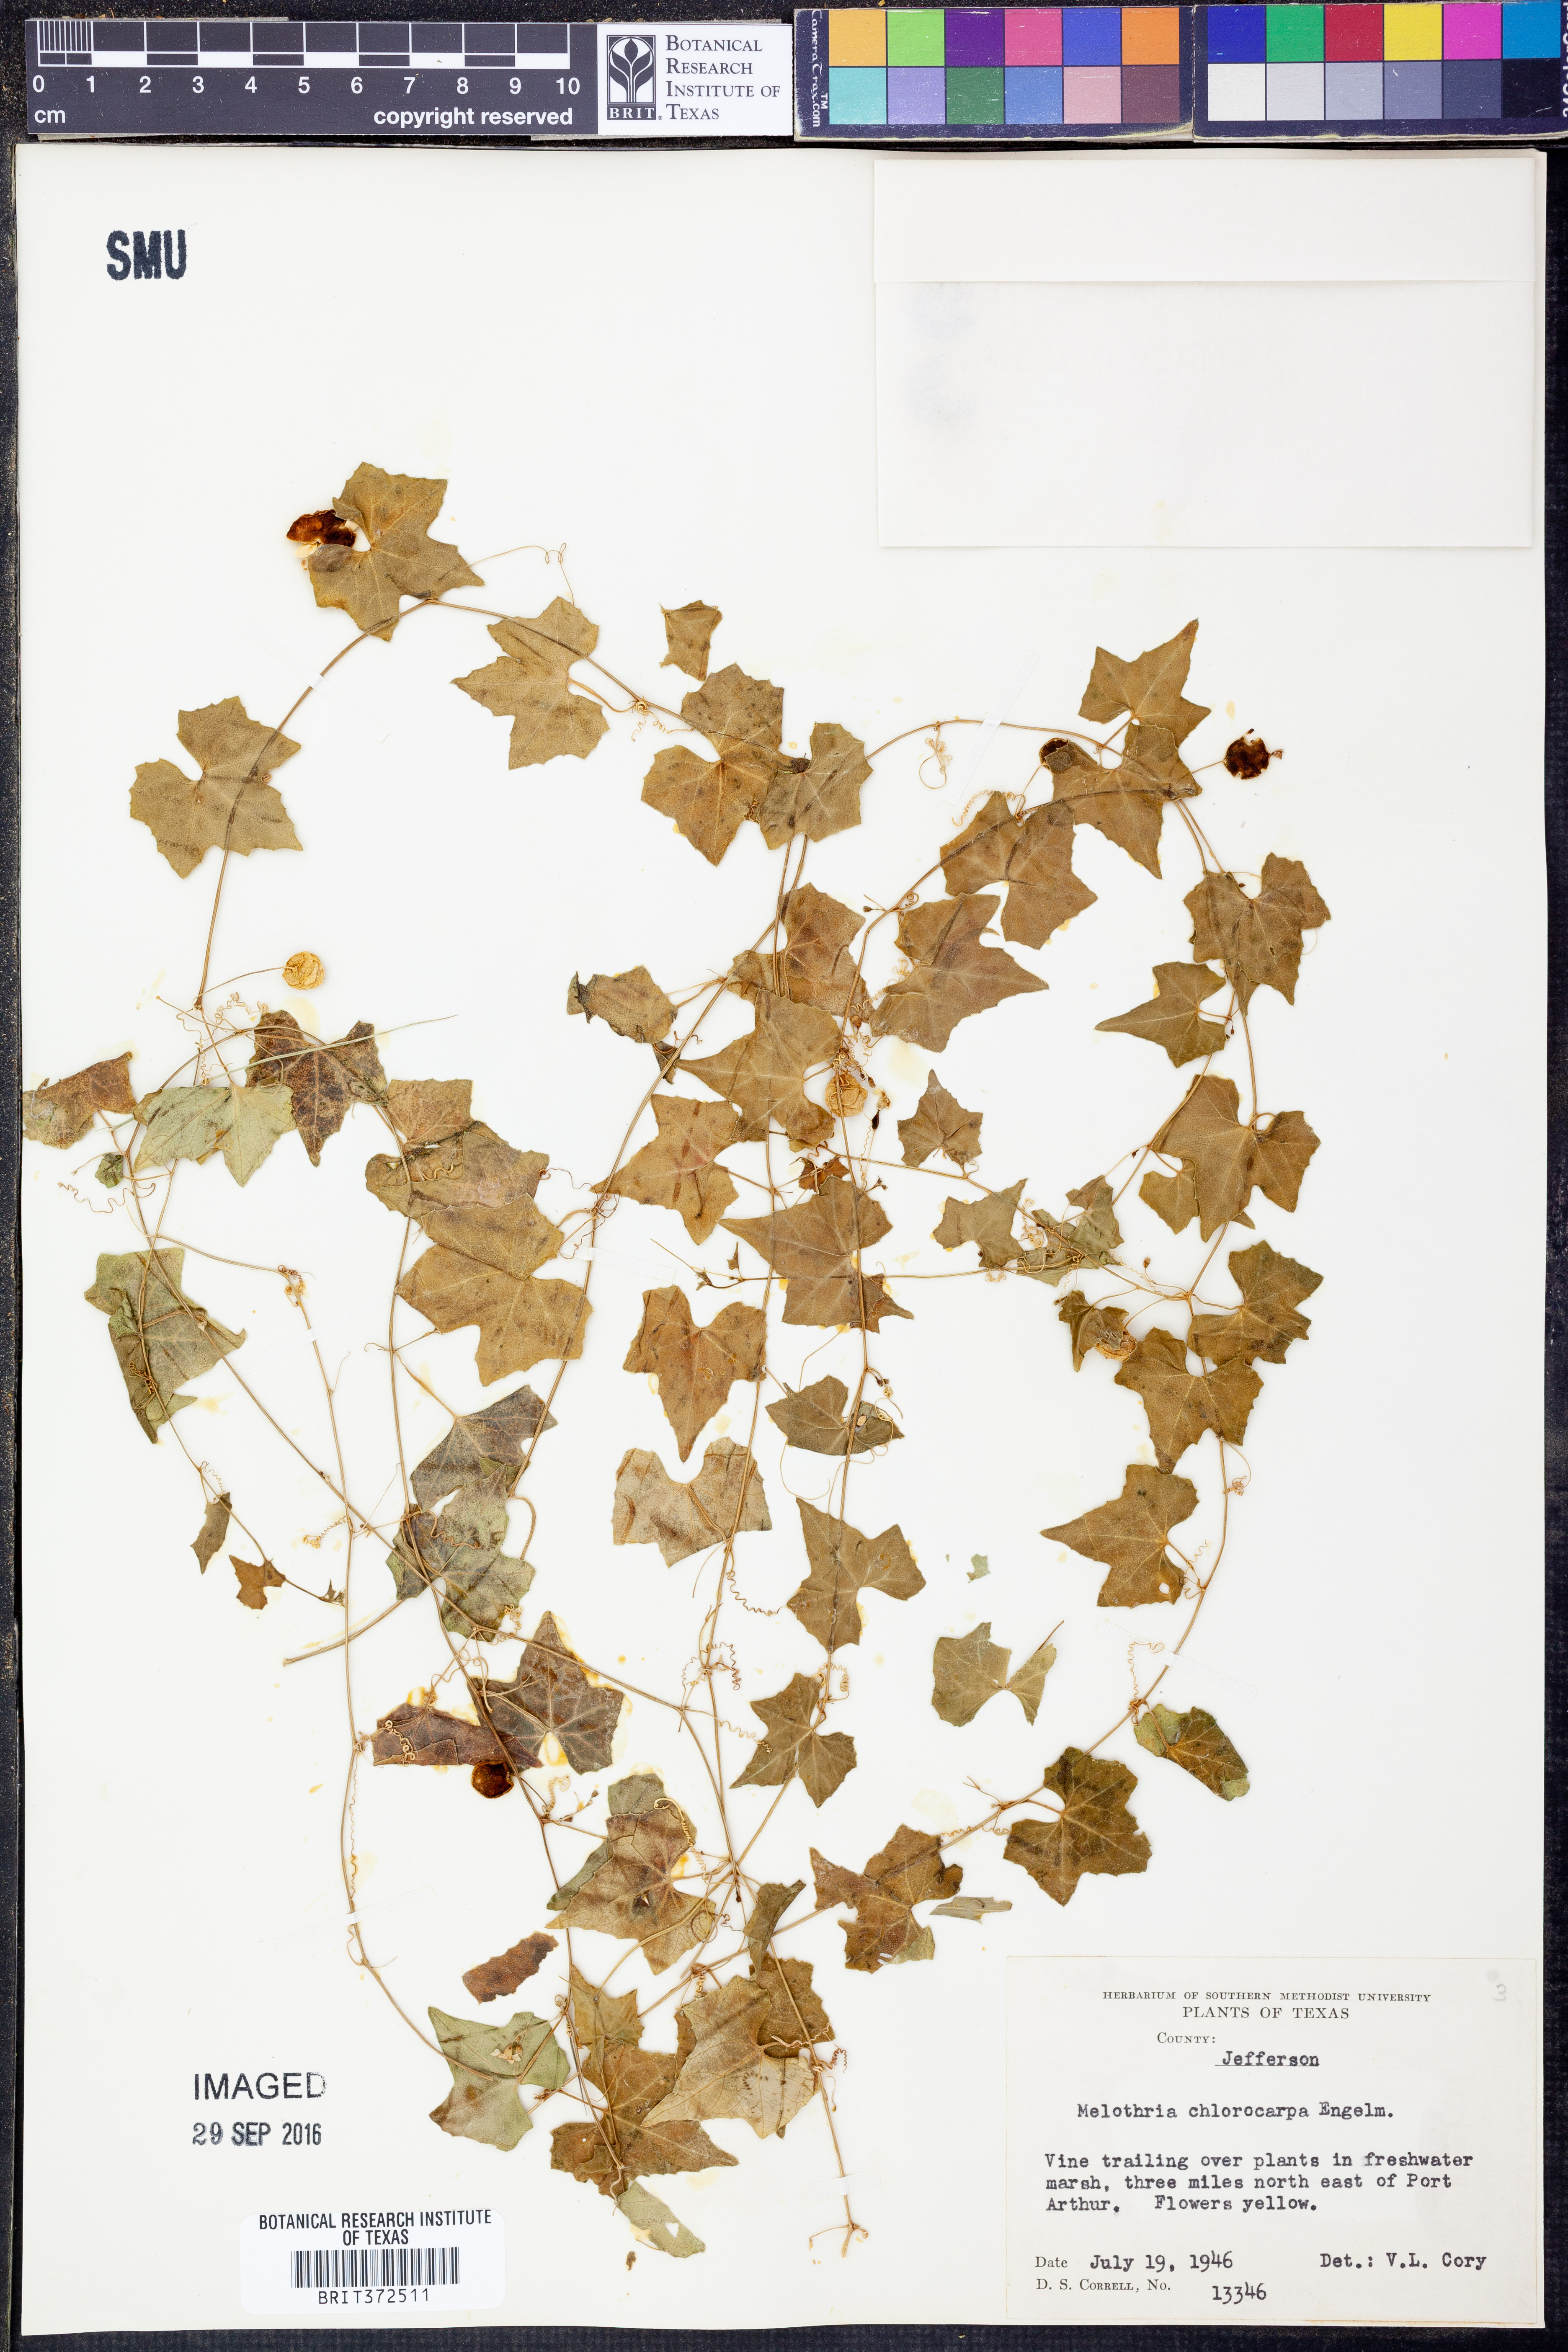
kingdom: Plantae
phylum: Tracheophyta
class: Magnoliopsida
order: Cucurbitales
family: Cucurbitaceae
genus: Melothria
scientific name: Melothria pendula
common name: Creeping-cucumber
